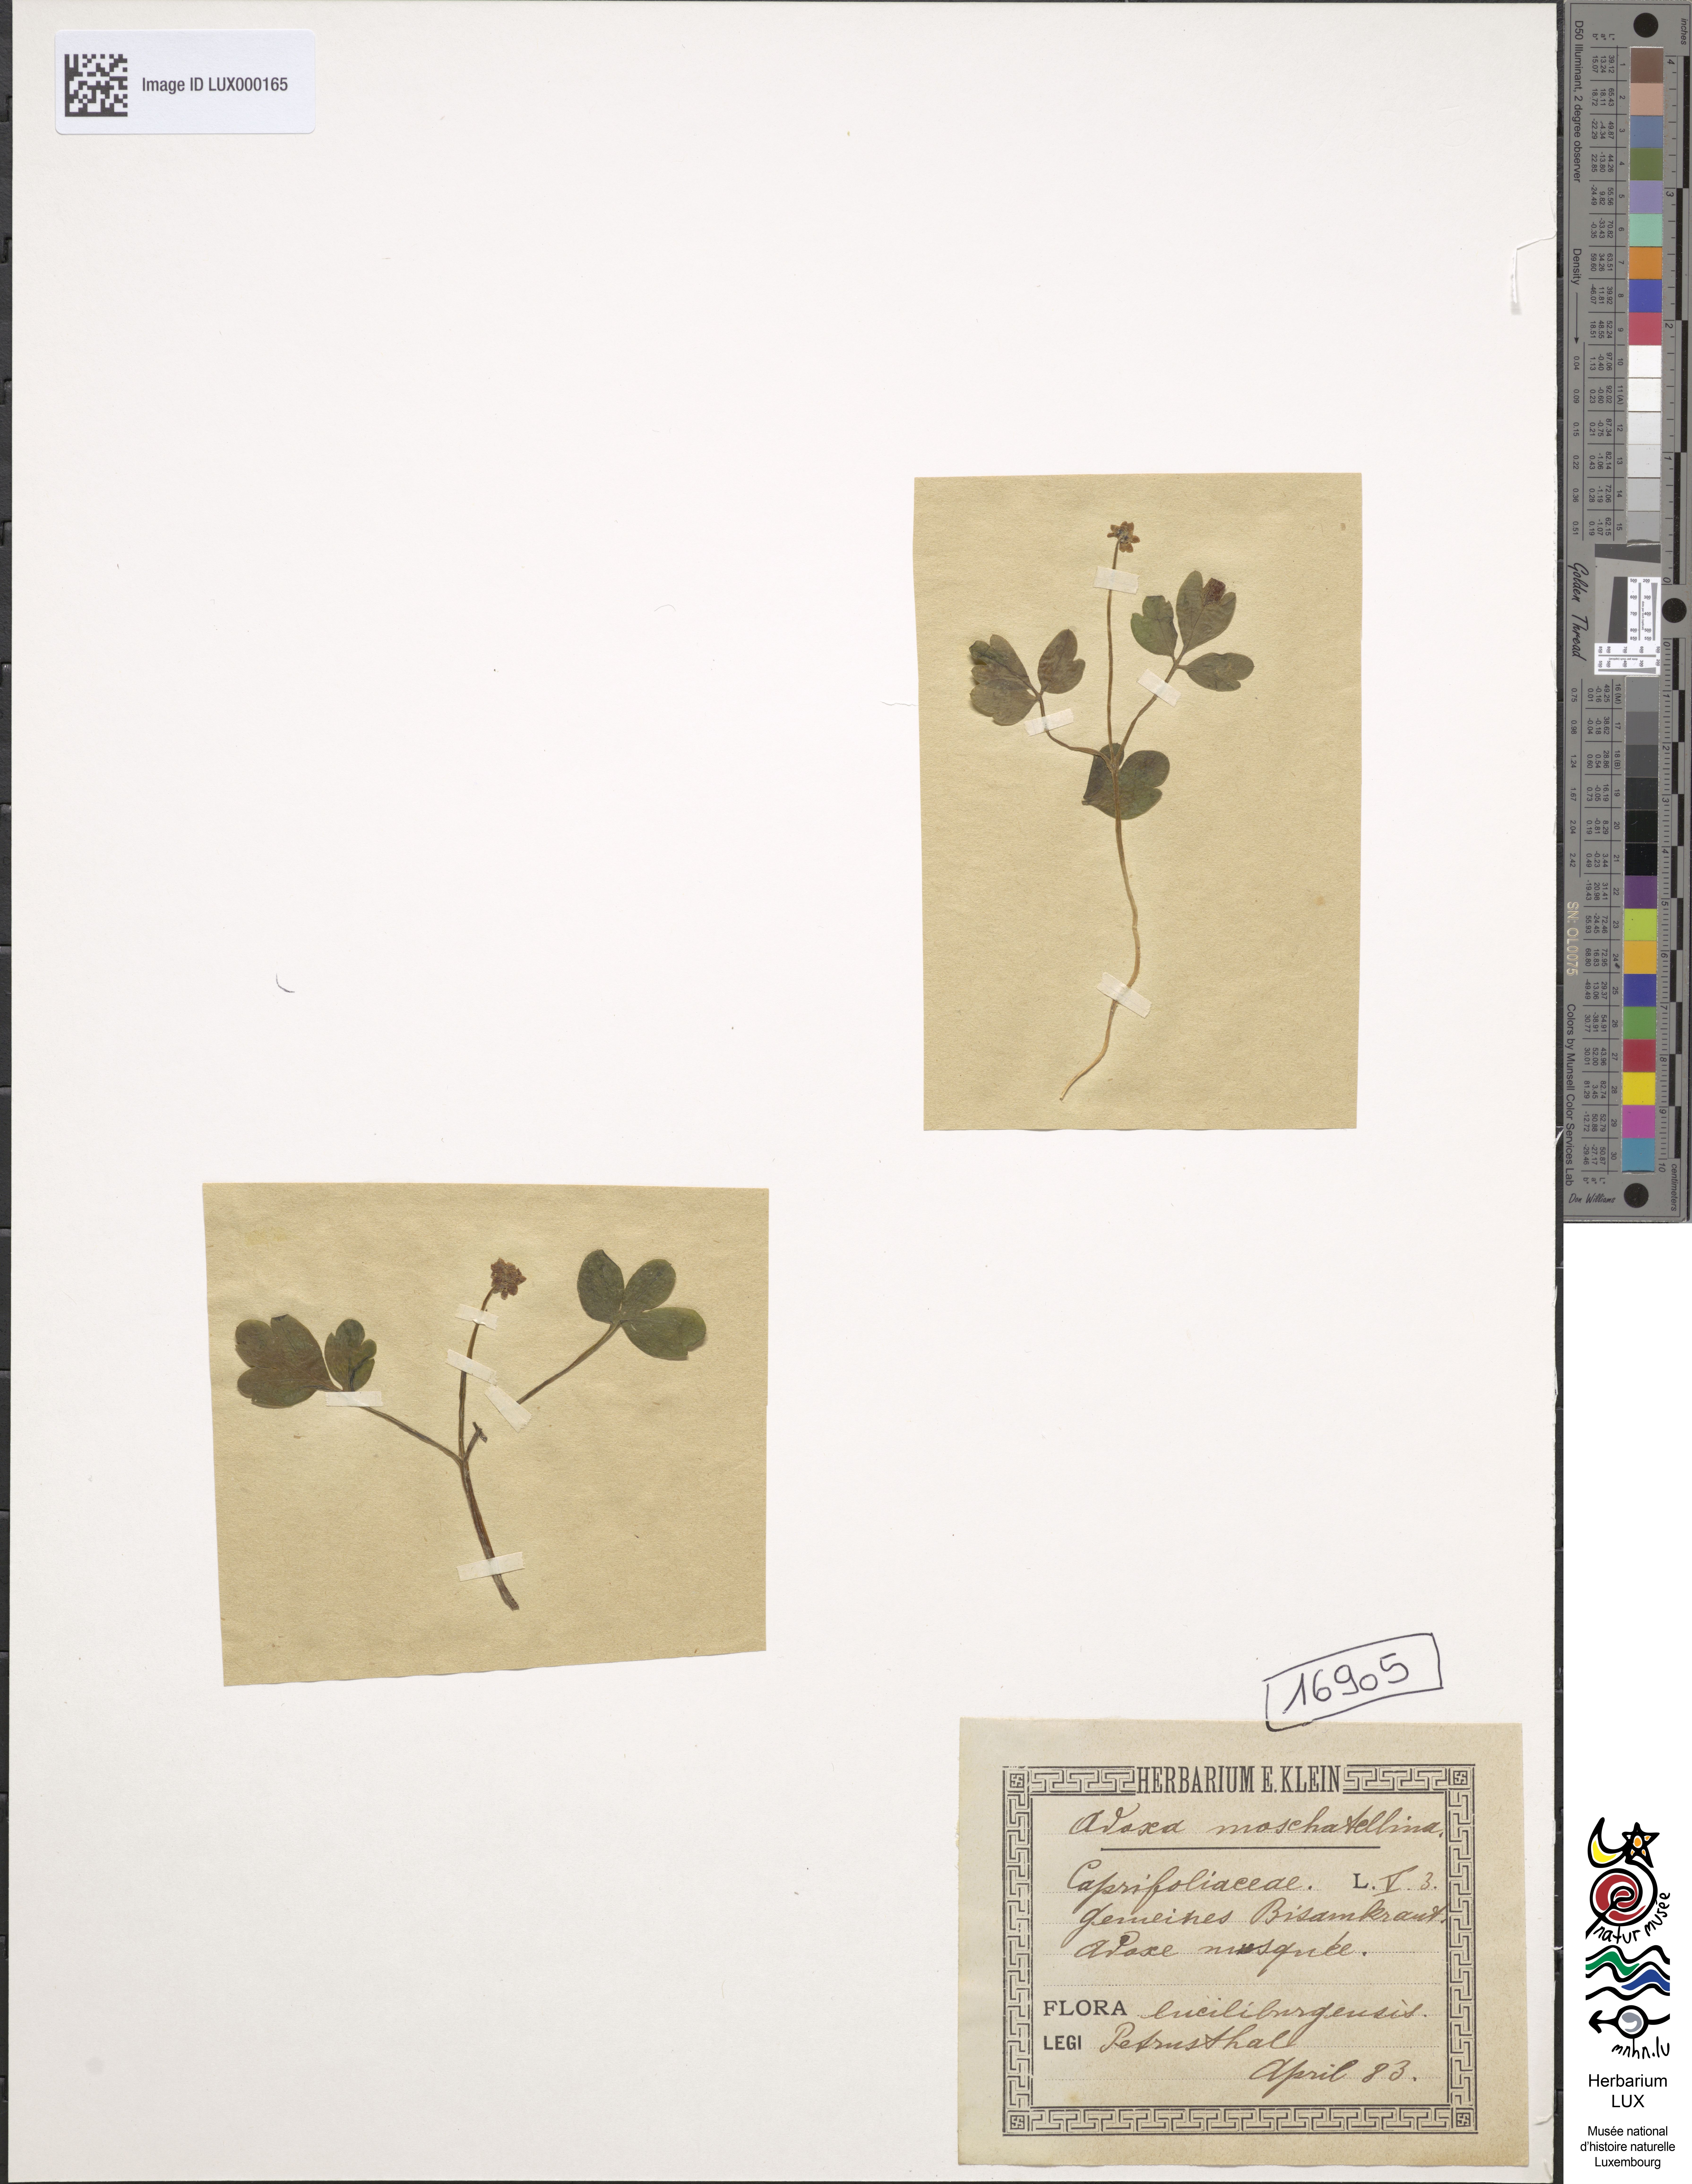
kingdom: Plantae
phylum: Tracheophyta
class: Magnoliopsida
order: Dipsacales
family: Viburnaceae
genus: Adoxa
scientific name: Adoxa moschatellina
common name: Moschatel
